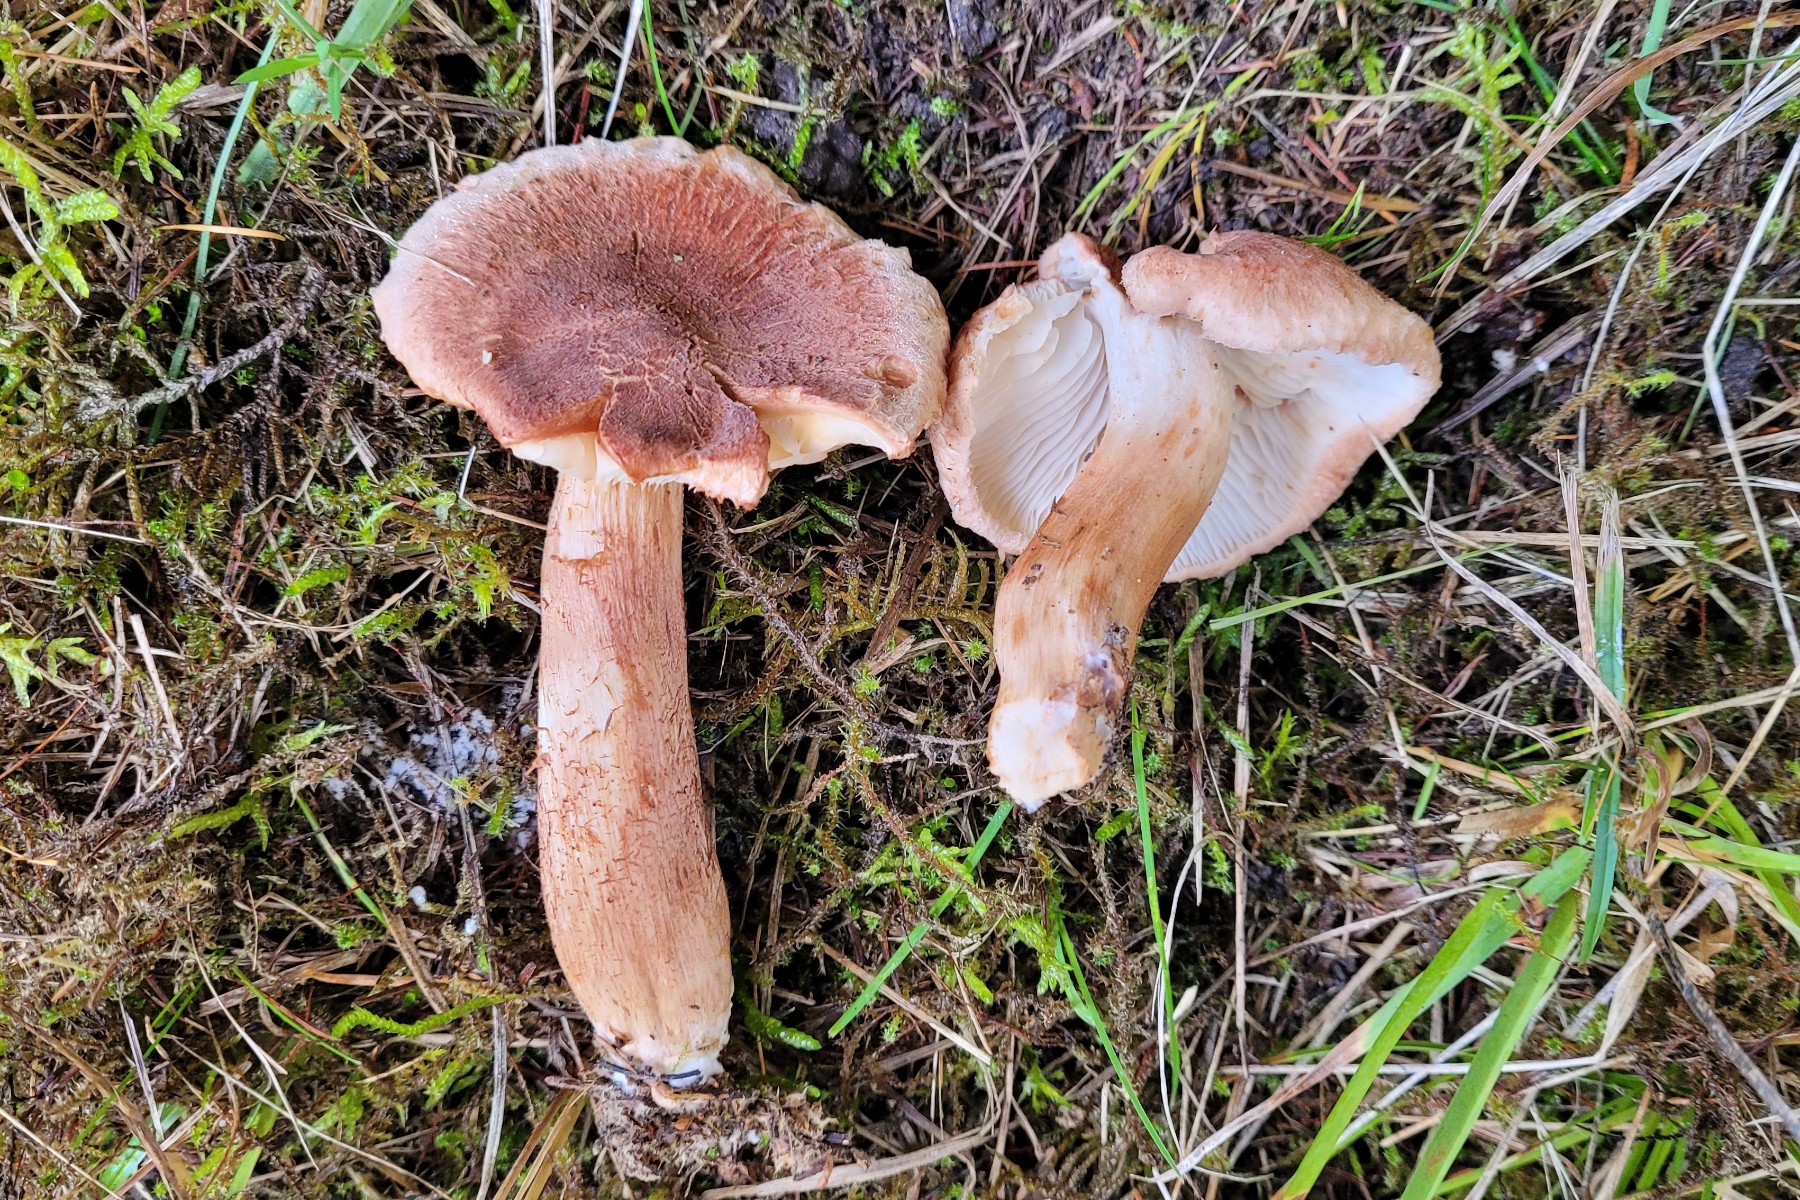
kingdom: Fungi
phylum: Basidiomycota
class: Agaricomycetes
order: Agaricales
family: Tricholomataceae
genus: Tricholoma
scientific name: Tricholoma vaccinum
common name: ko-ridderhat
